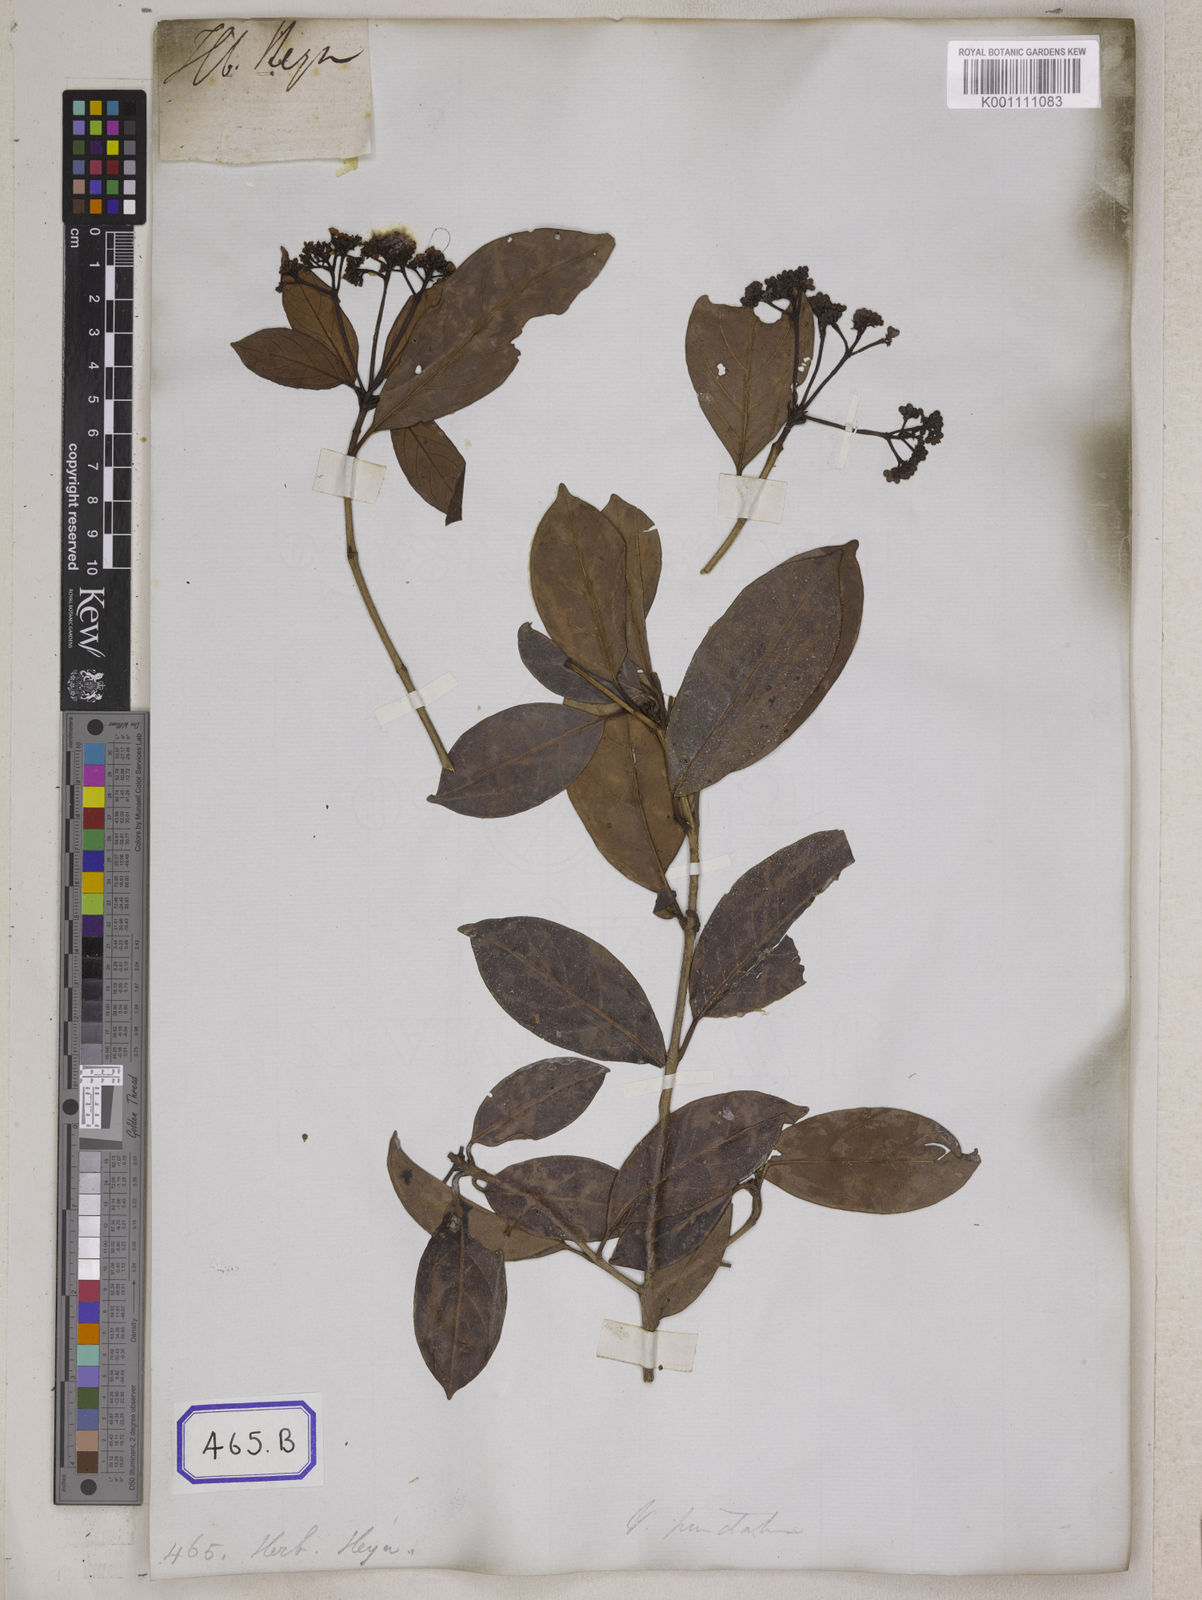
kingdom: Plantae
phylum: Tracheophyta
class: Magnoliopsida
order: Dipsacales
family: Viburnaceae
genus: Viburnum
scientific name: Viburnum
